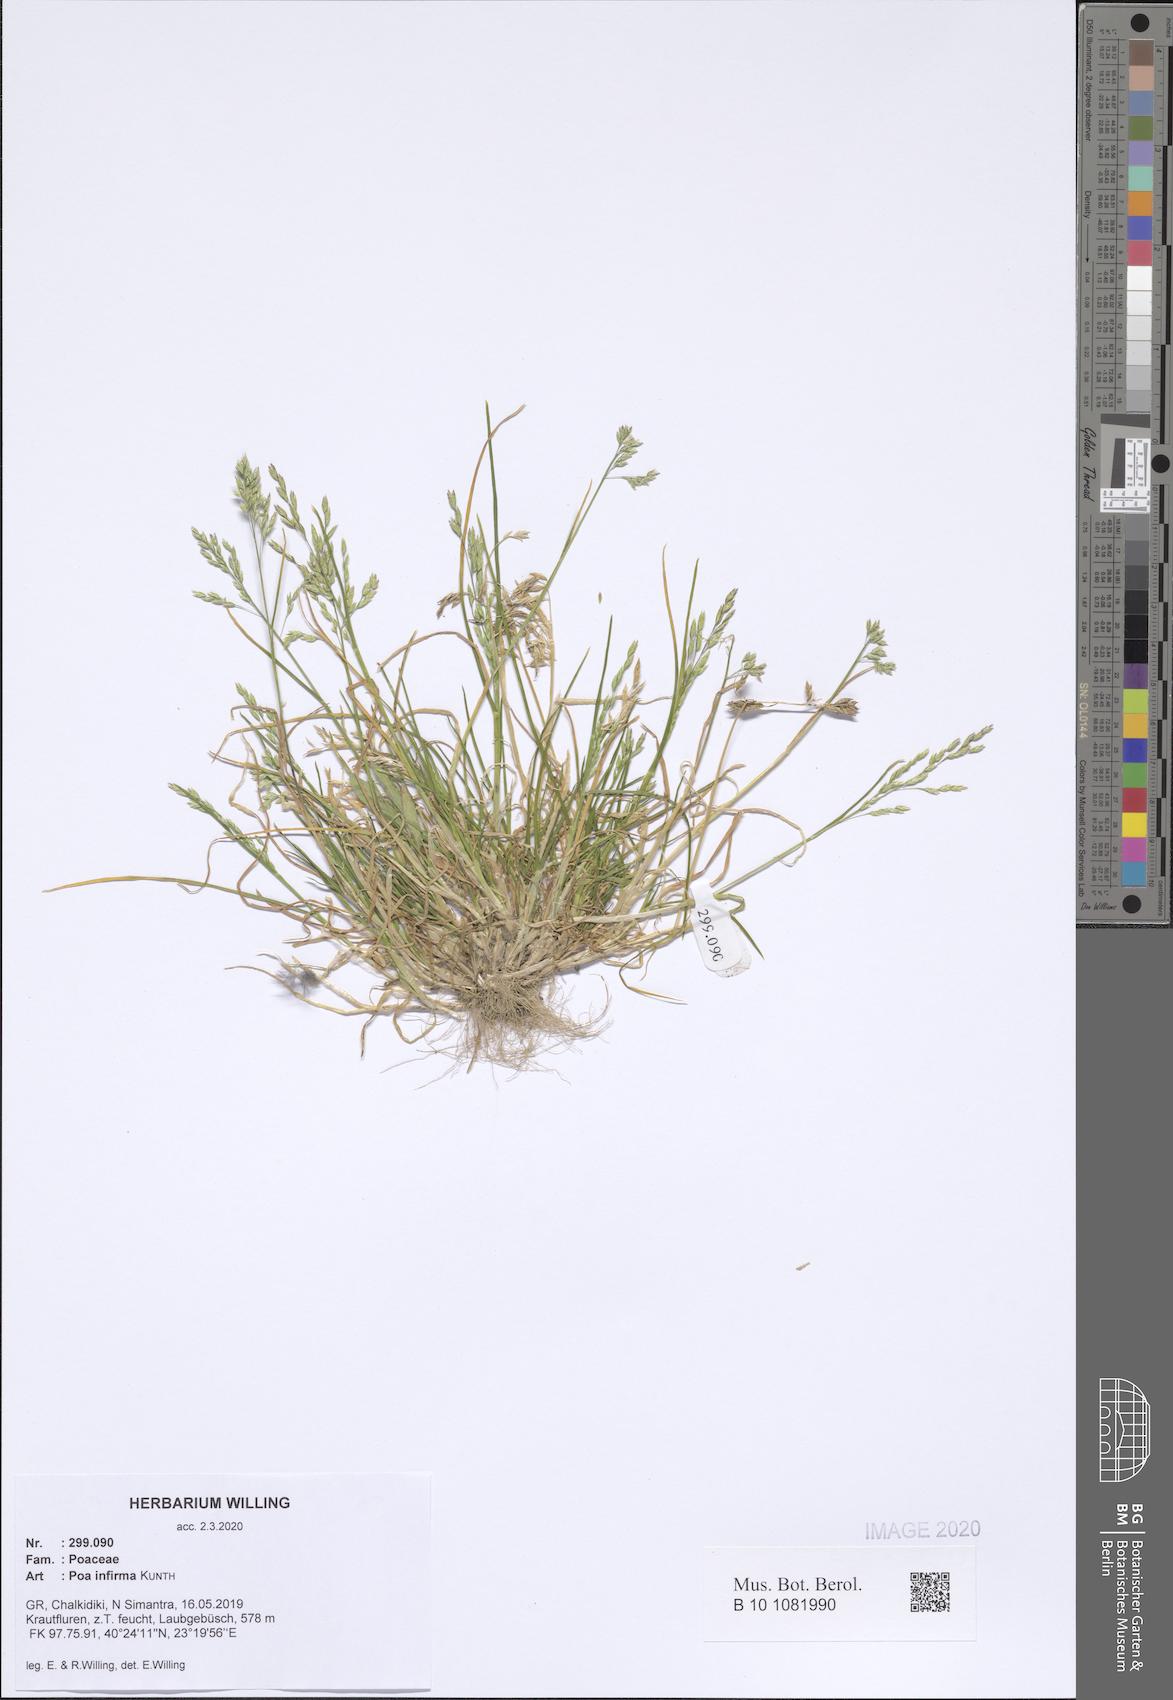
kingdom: Plantae
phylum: Tracheophyta
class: Liliopsida
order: Poales
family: Poaceae
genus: Poa
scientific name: Poa infirma
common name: Weak bluegrass
